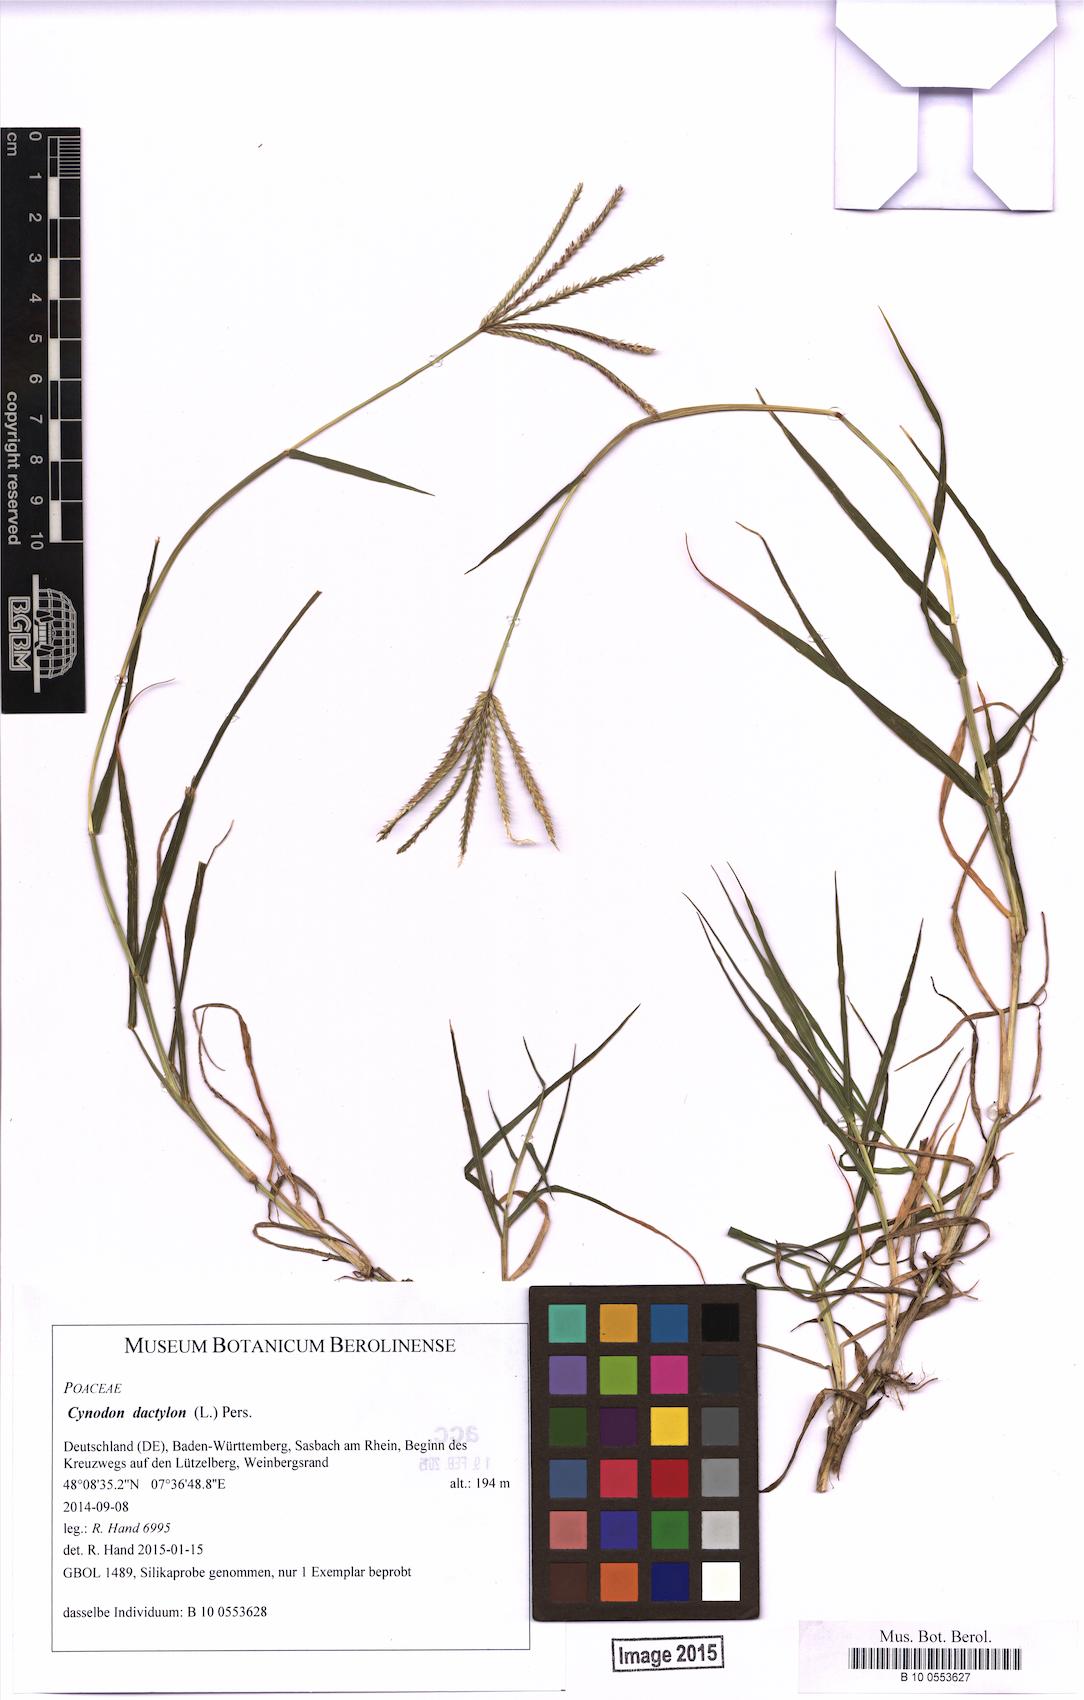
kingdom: Plantae
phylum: Tracheophyta
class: Liliopsida
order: Poales
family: Poaceae
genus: Cynodon
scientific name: Cynodon dactylon
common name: Bermuda grass
